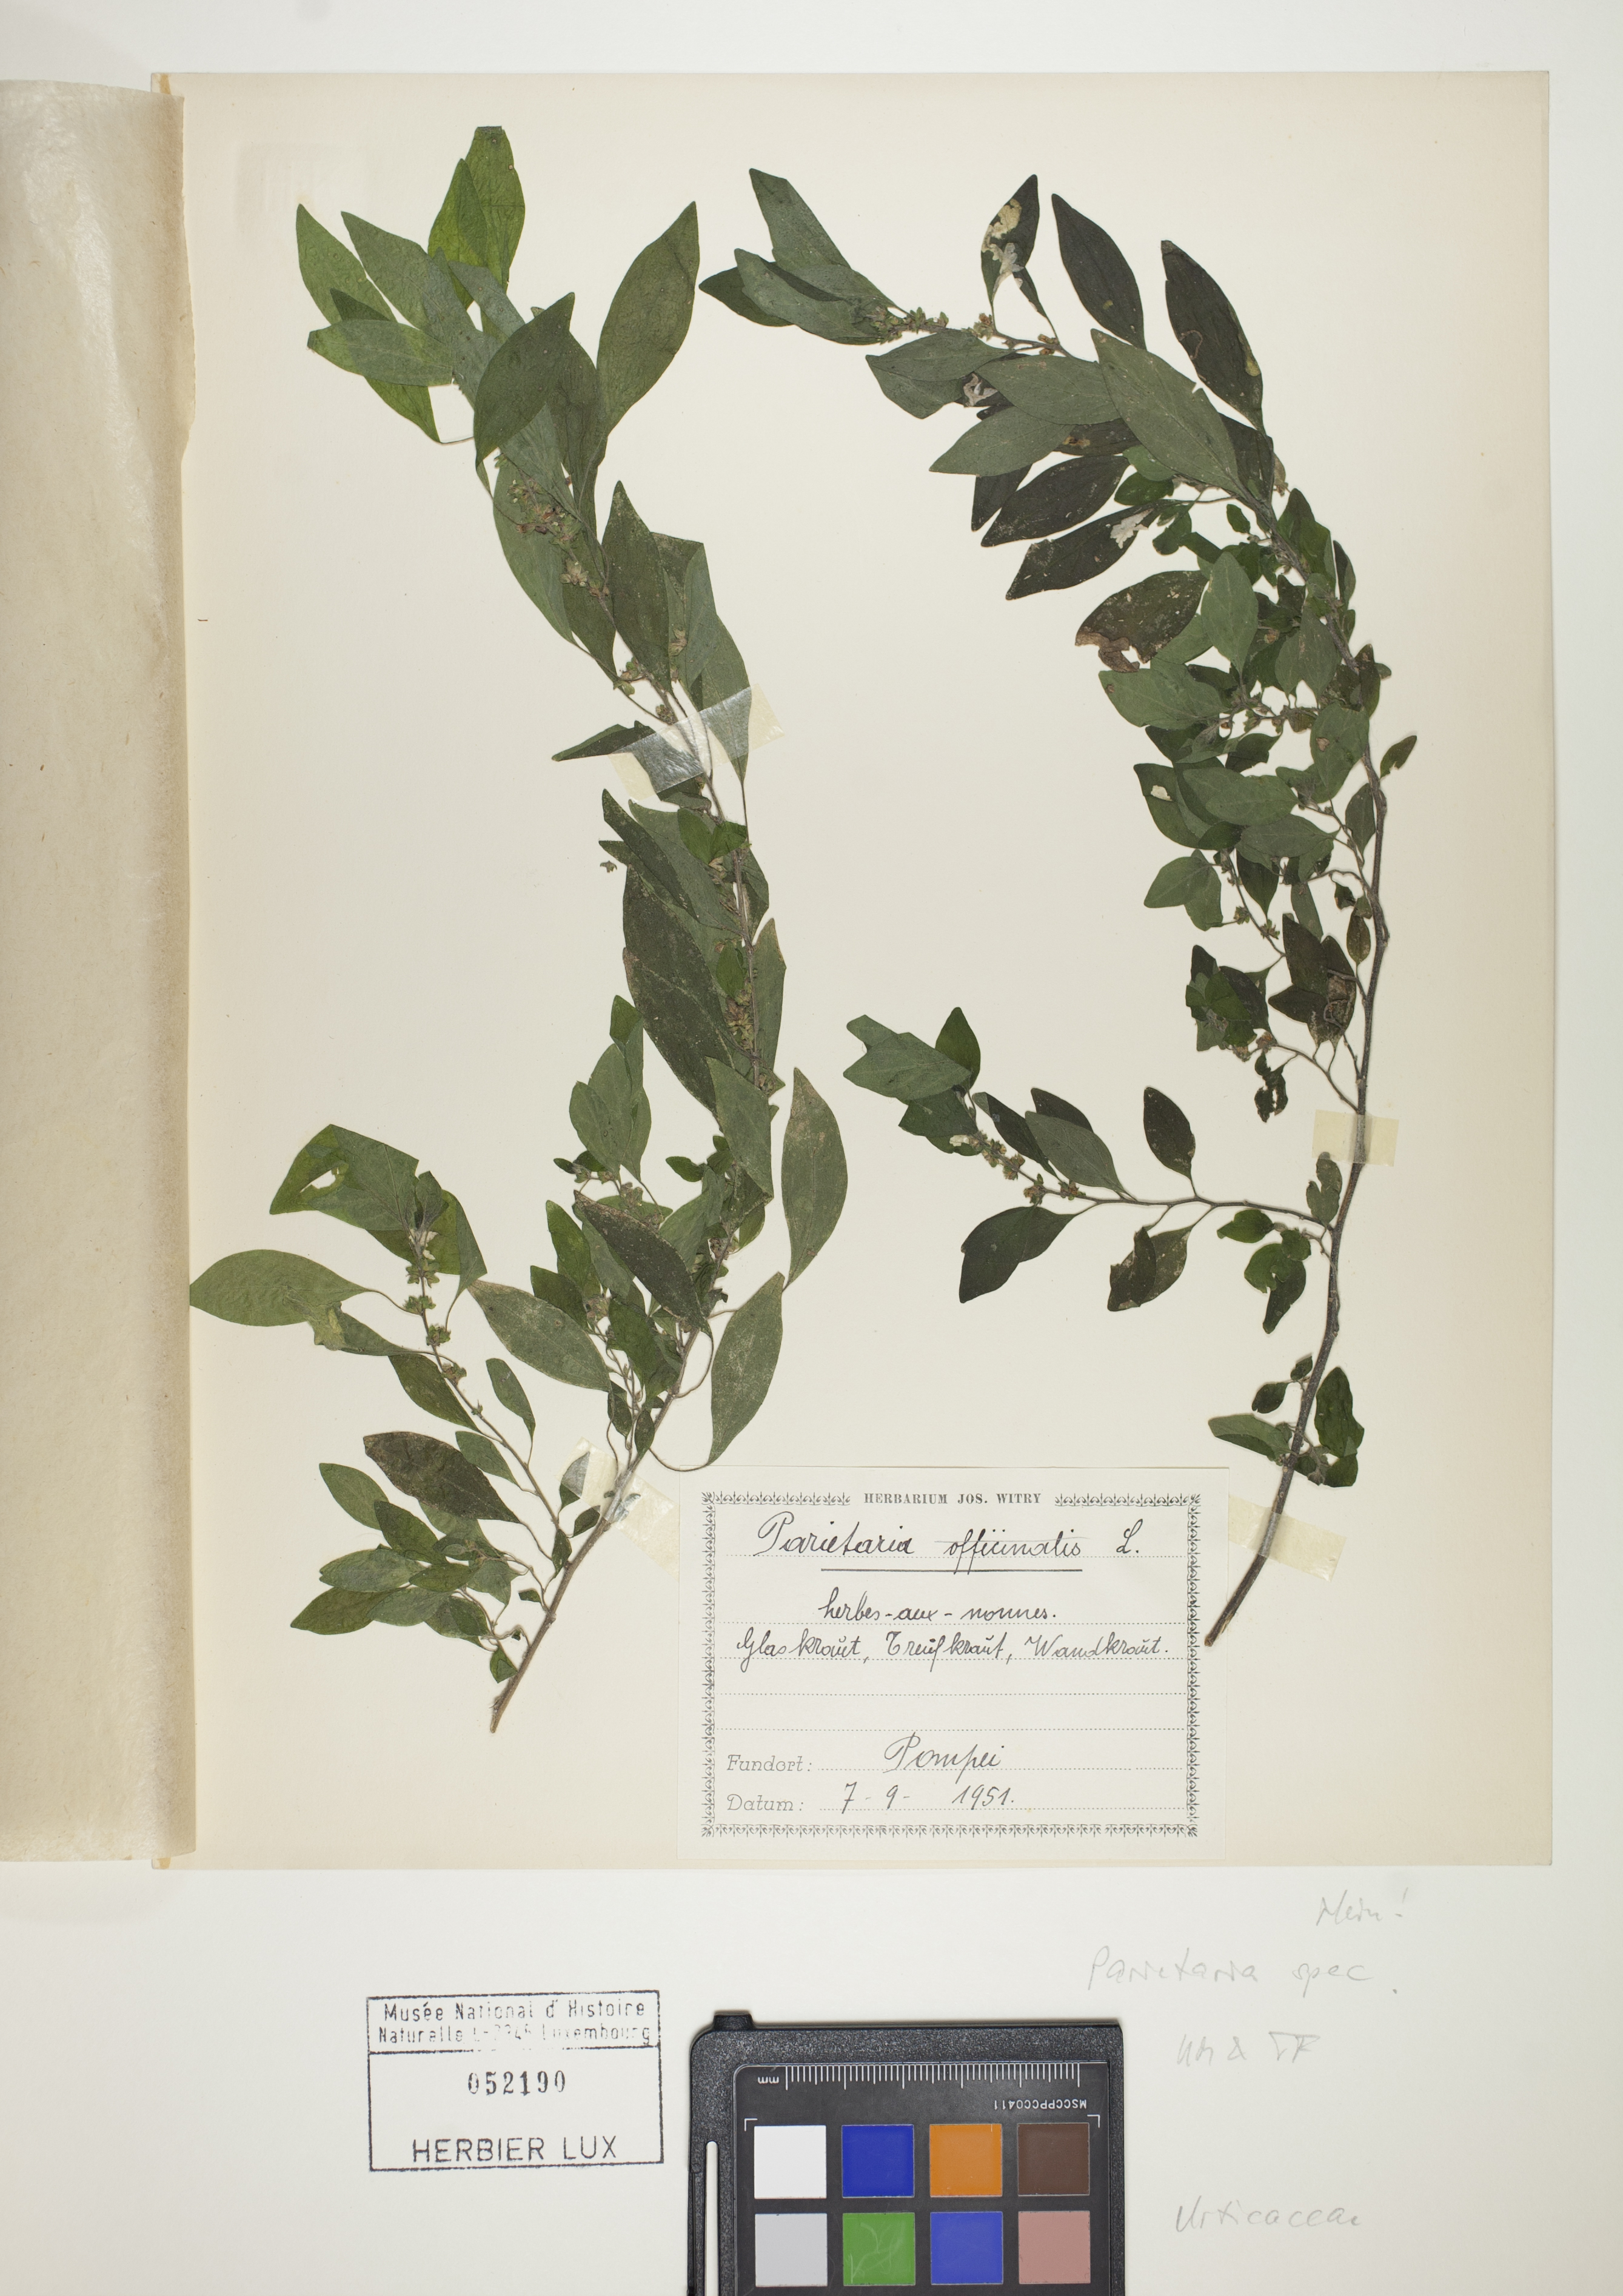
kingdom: Plantae
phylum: Tracheophyta
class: Magnoliopsida
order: Rosales
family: Urticaceae
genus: Parietaria
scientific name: Parietaria
